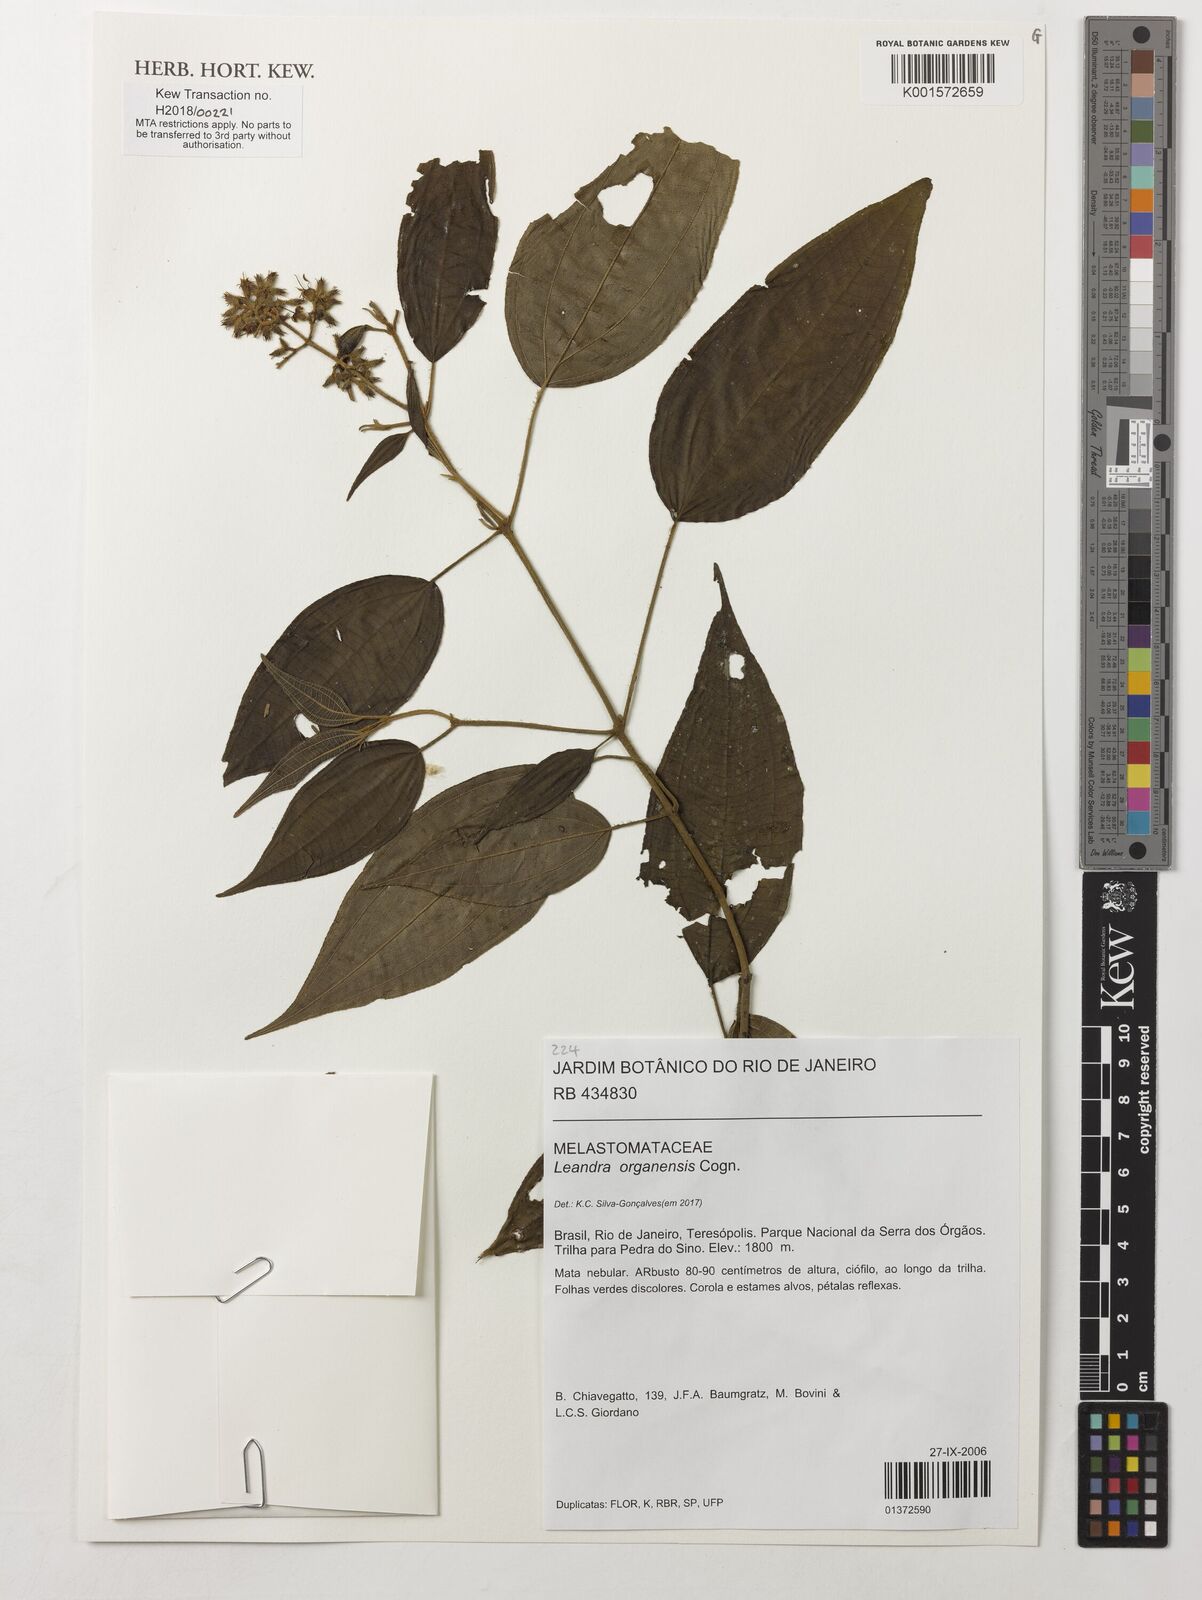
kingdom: Plantae
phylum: Tracheophyta
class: Magnoliopsida
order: Myrtales
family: Melastomataceae
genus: Miconia
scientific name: Miconia leaorganensis
